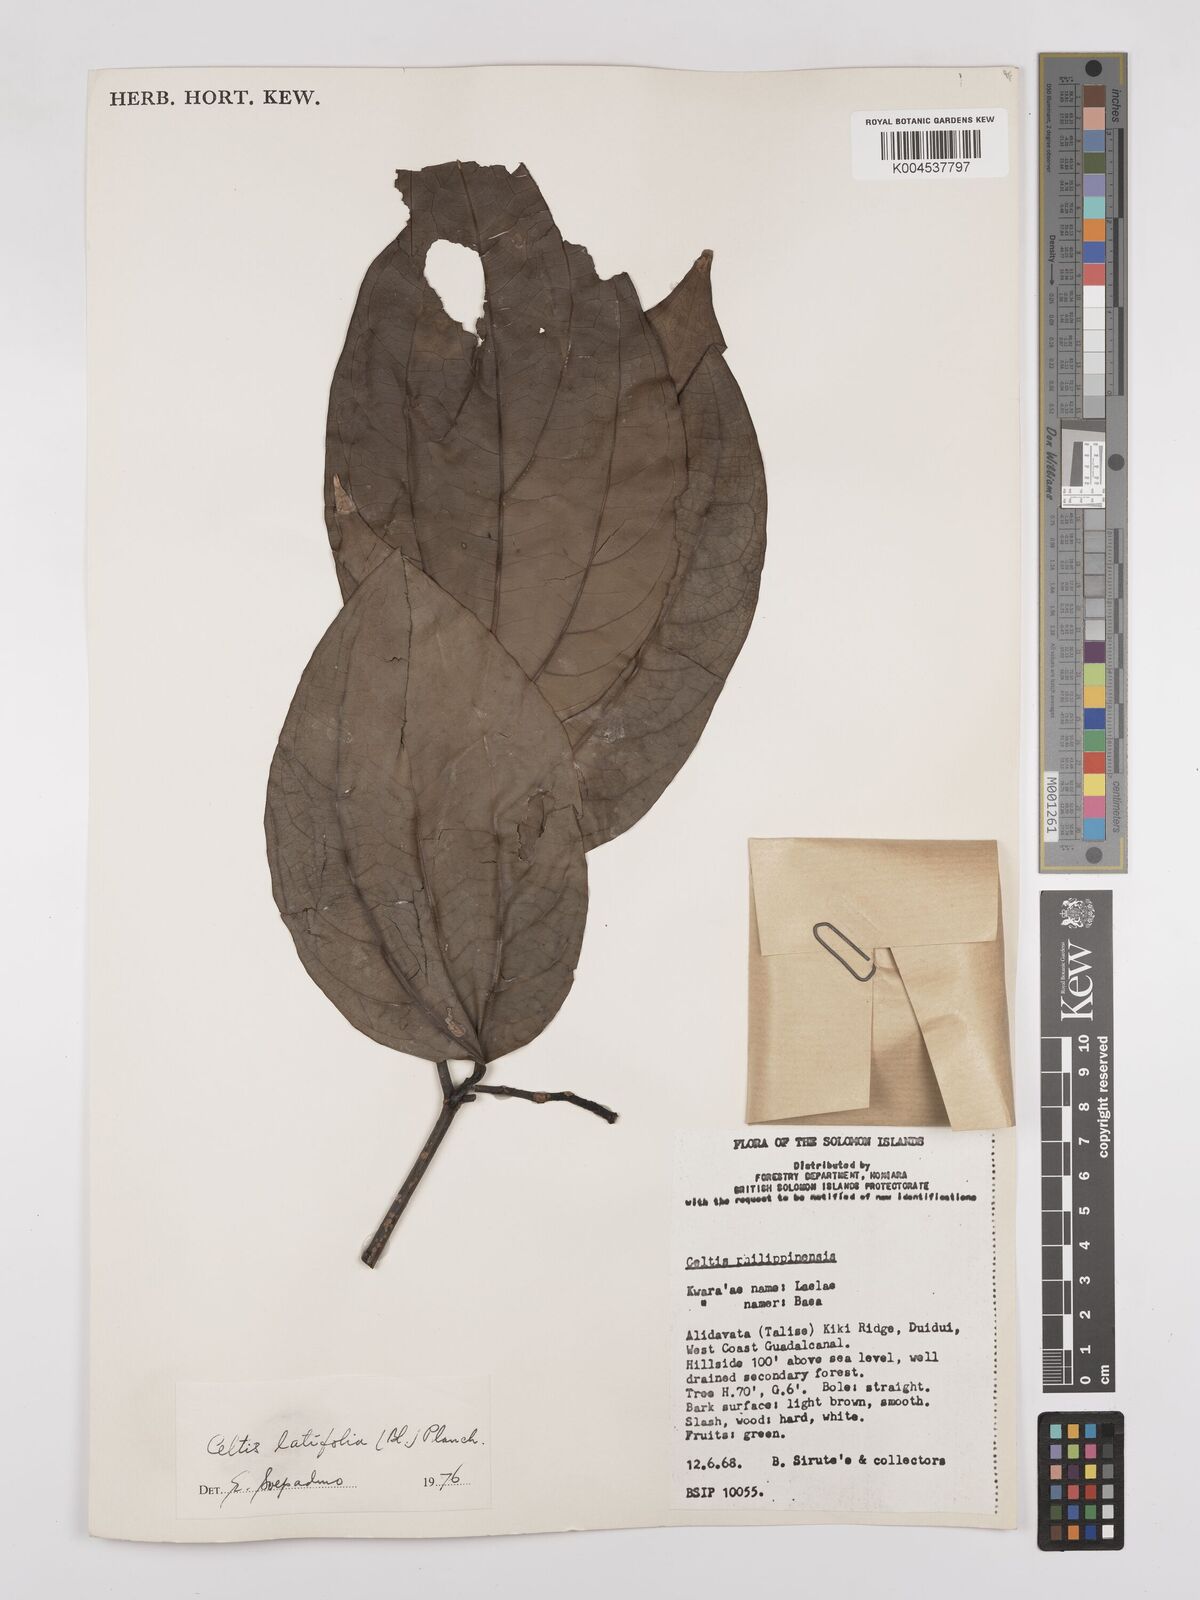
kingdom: Plantae
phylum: Tracheophyta
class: Magnoliopsida
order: Rosales
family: Cannabaceae
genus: Celtis
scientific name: Celtis latifolia
